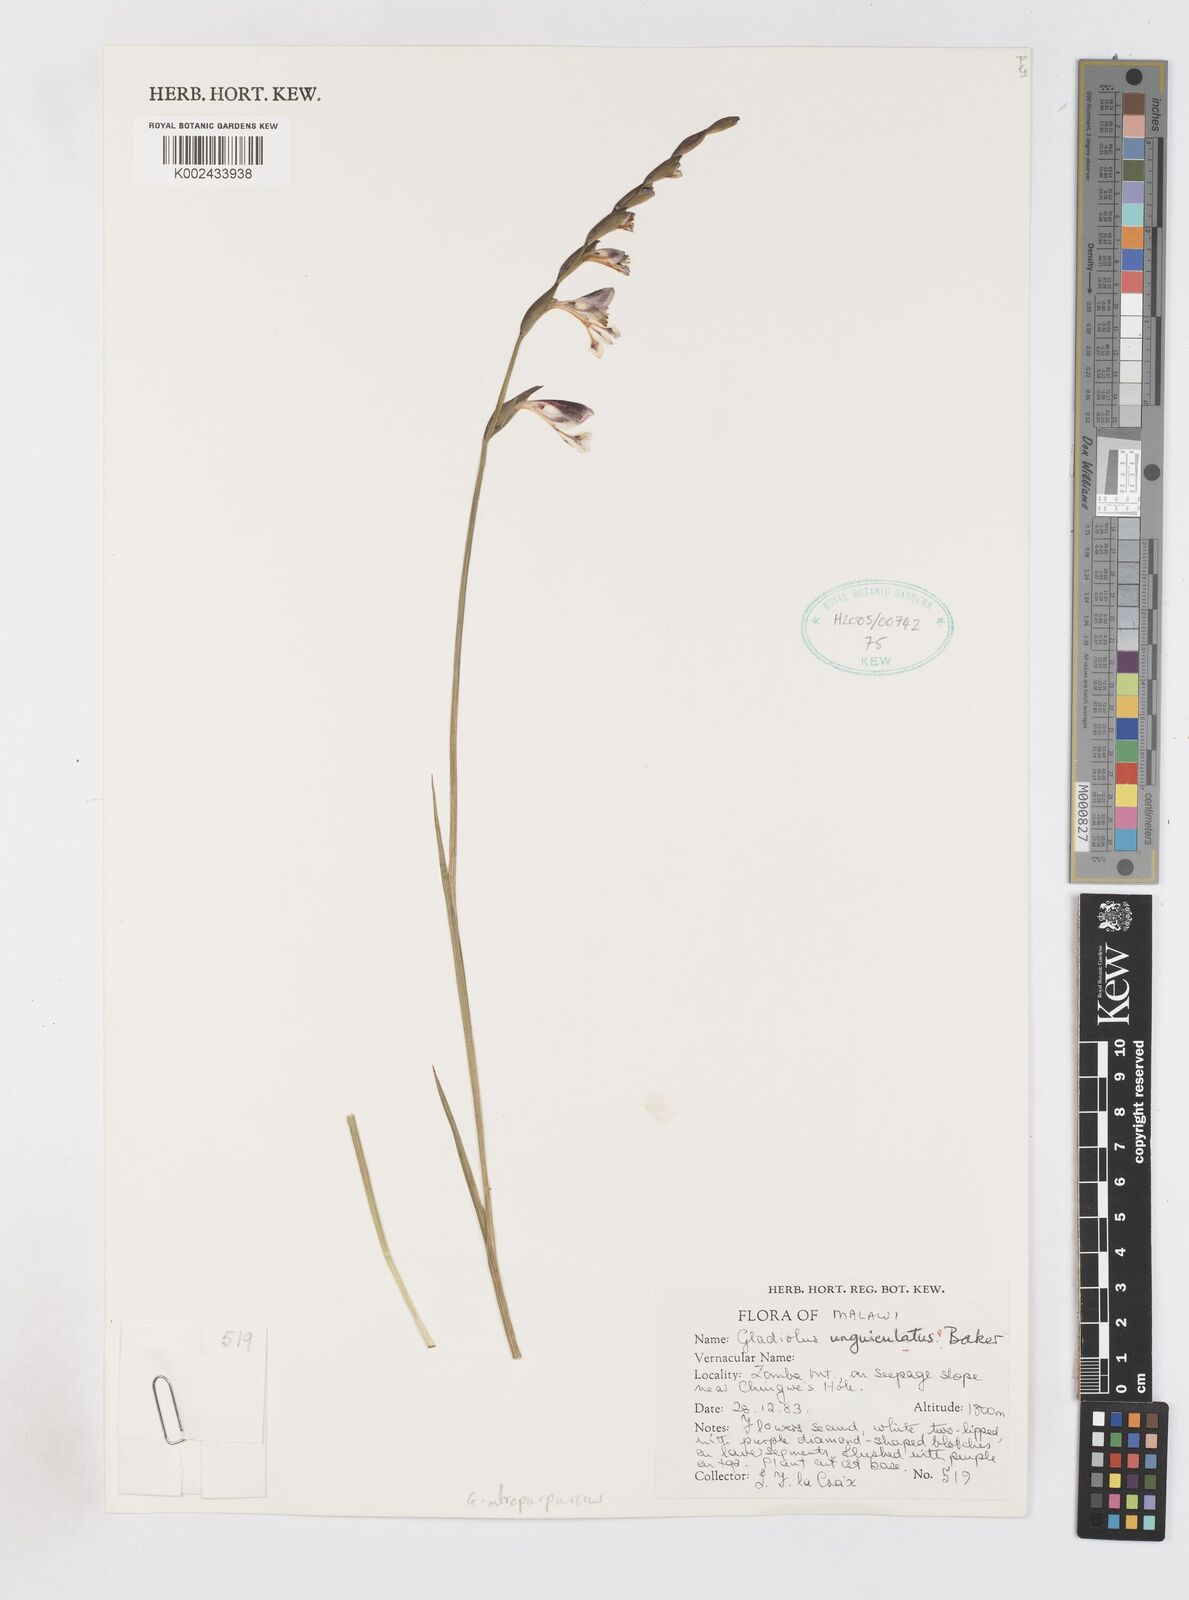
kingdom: Plantae
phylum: Tracheophyta
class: Liliopsida
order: Asparagales
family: Iridaceae
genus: Gladiolus
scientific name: Gladiolus atropurpureus
